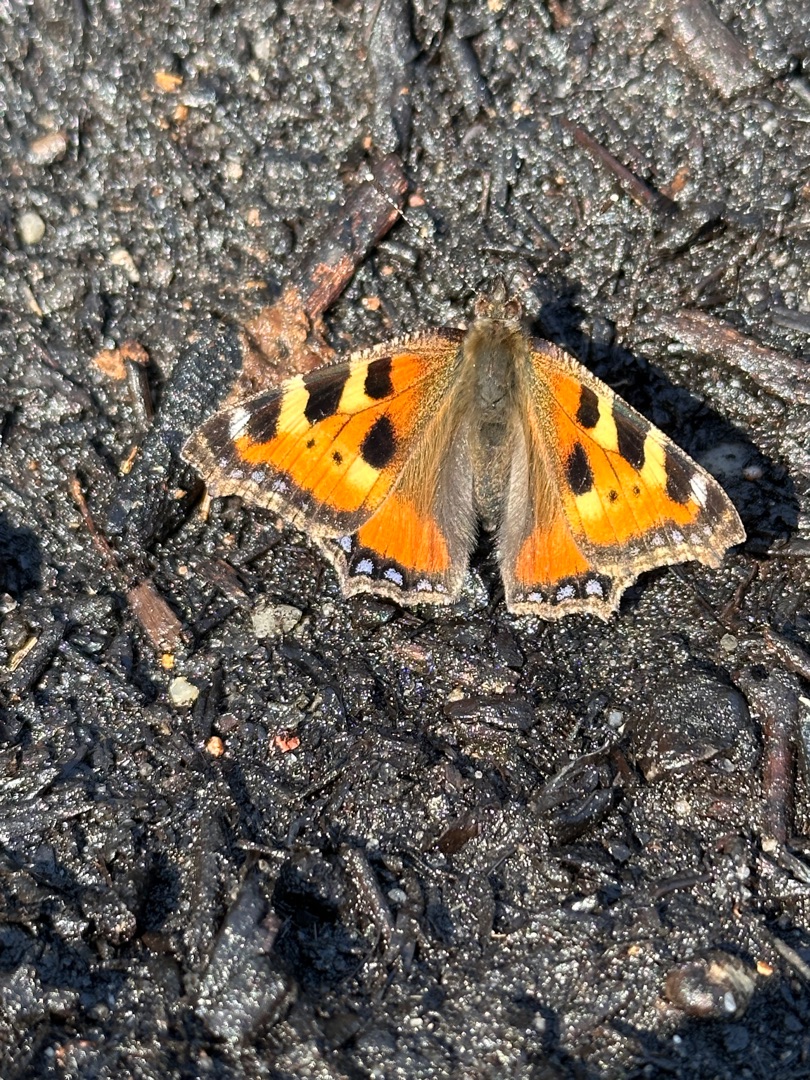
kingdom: Animalia
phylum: Arthropoda
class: Insecta
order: Lepidoptera
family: Nymphalidae
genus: Aglais
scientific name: Aglais urticae
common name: Nældens takvinge
